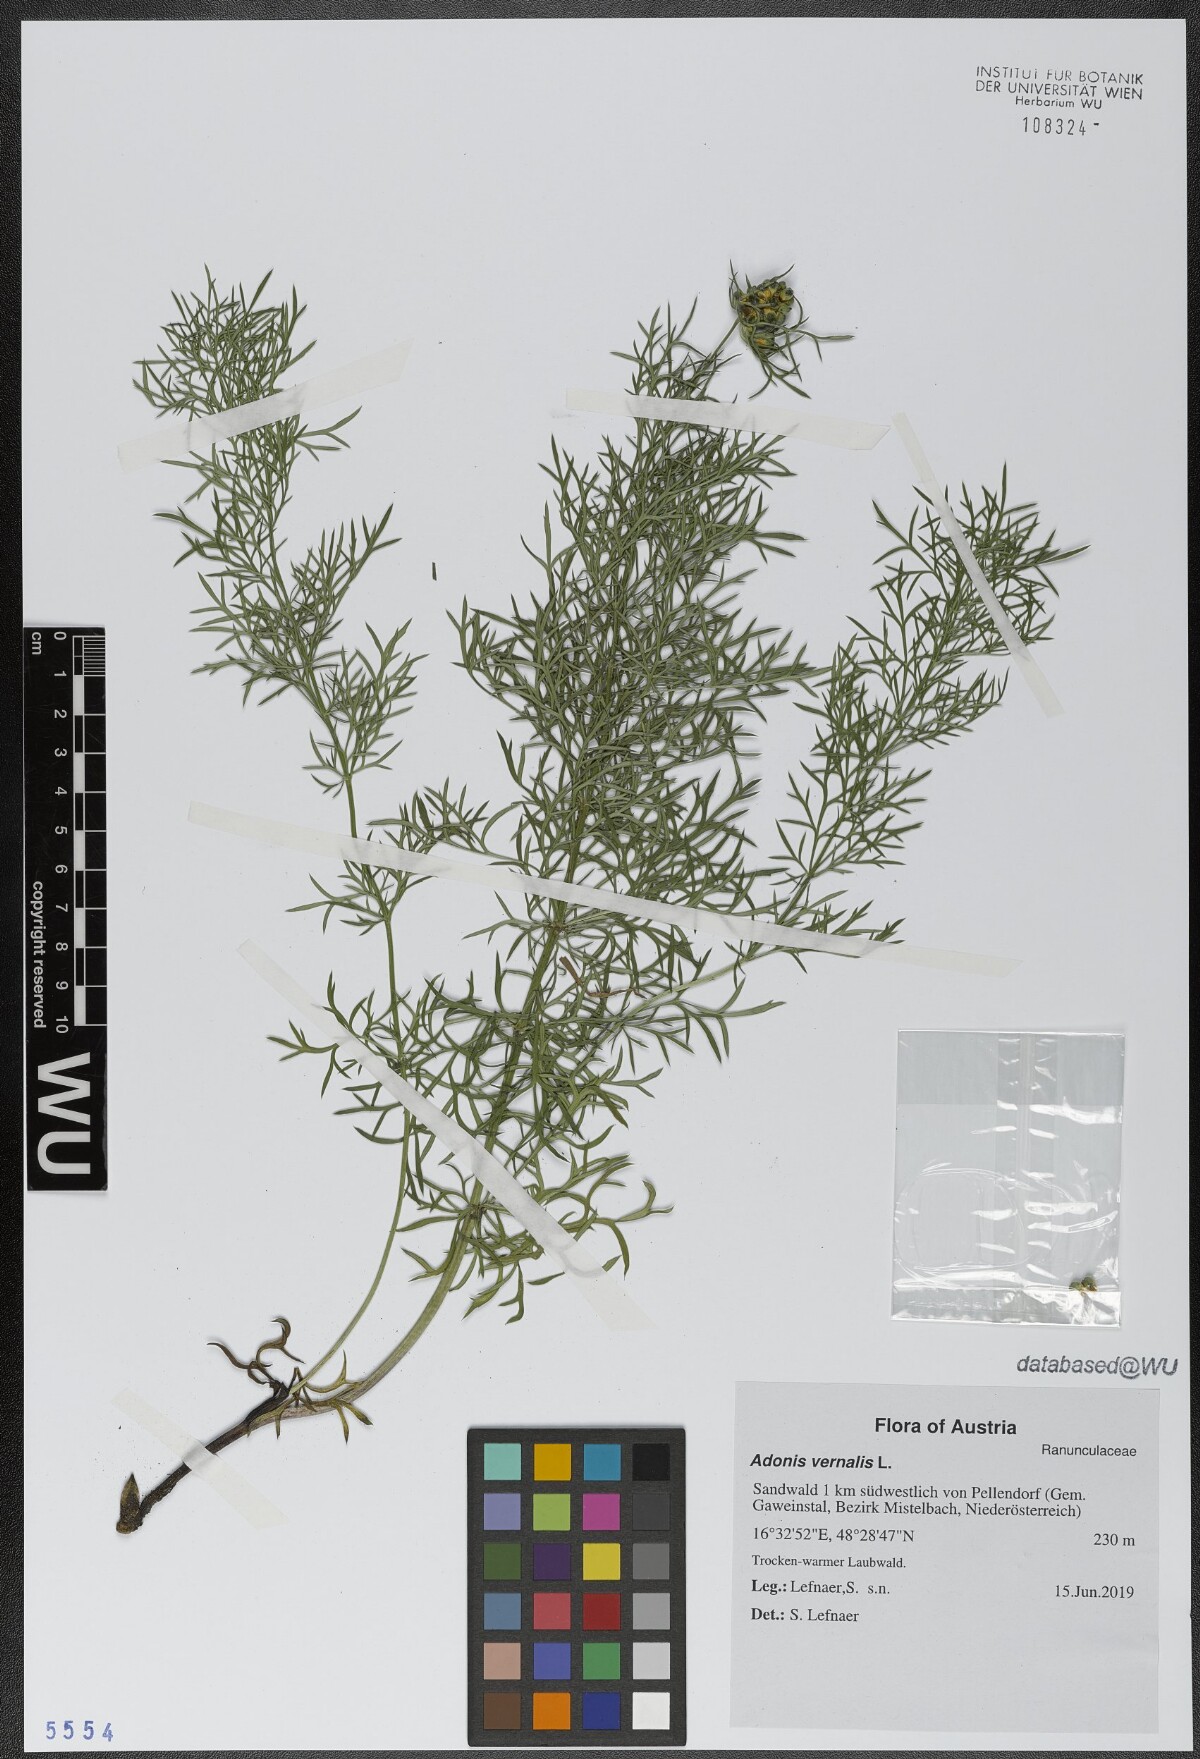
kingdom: Plantae
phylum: Tracheophyta
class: Magnoliopsida
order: Ranunculales
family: Ranunculaceae
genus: Adonis
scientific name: Adonis vernalis
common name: Yellow pheasants-eye
